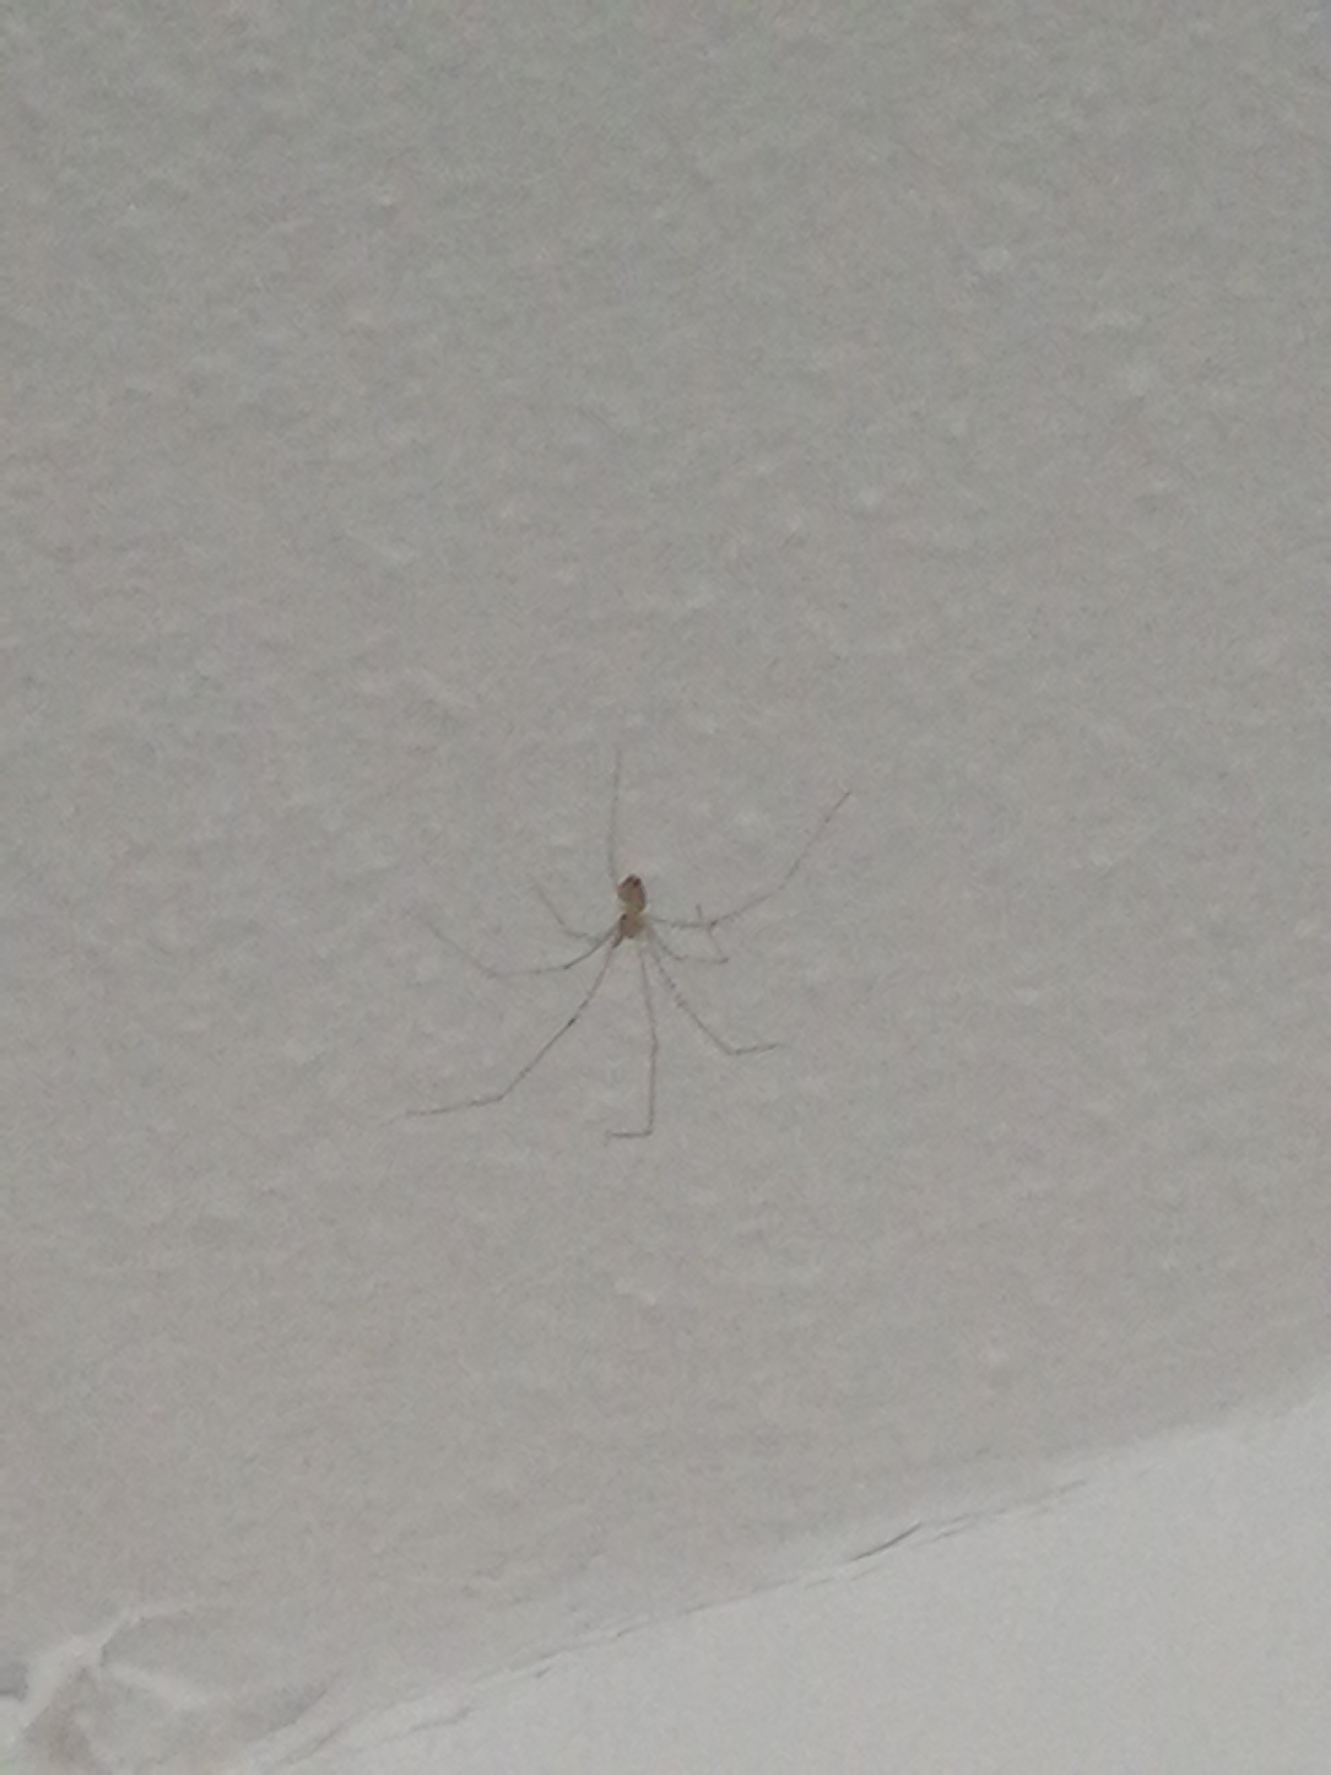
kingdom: Animalia
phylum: Arthropoda
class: Arachnida
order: Araneae
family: Pholcidae
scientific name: Pholcidae
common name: Mejeredderkopper
